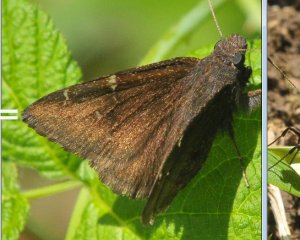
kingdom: Animalia
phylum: Arthropoda
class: Insecta
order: Lepidoptera
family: Hesperiidae
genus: Autochton
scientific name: Autochton
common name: Northern Cloudywing
